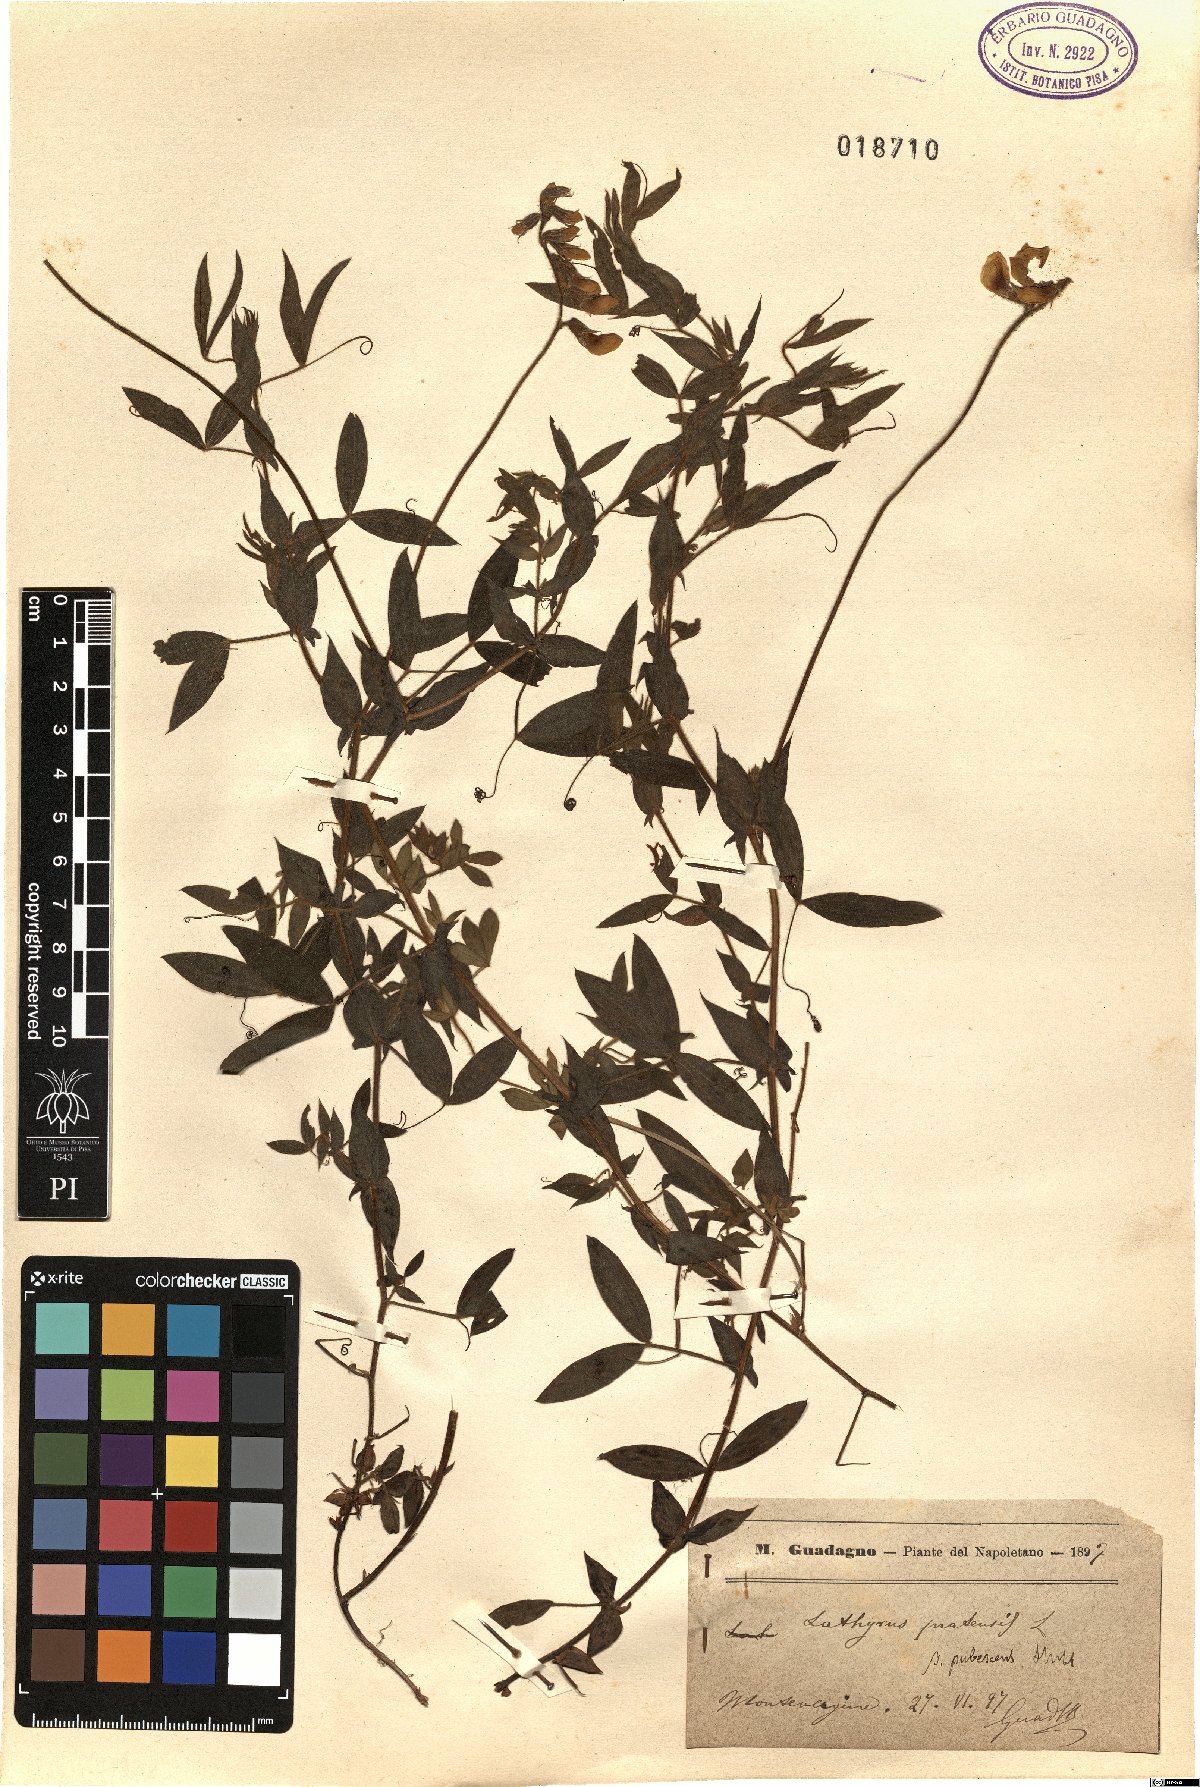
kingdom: Plantae
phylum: Tracheophyta
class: Magnoliopsida
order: Fabales
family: Fabaceae
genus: Lathyrus
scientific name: Lathyrus pratensis
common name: Meadow vetchling
